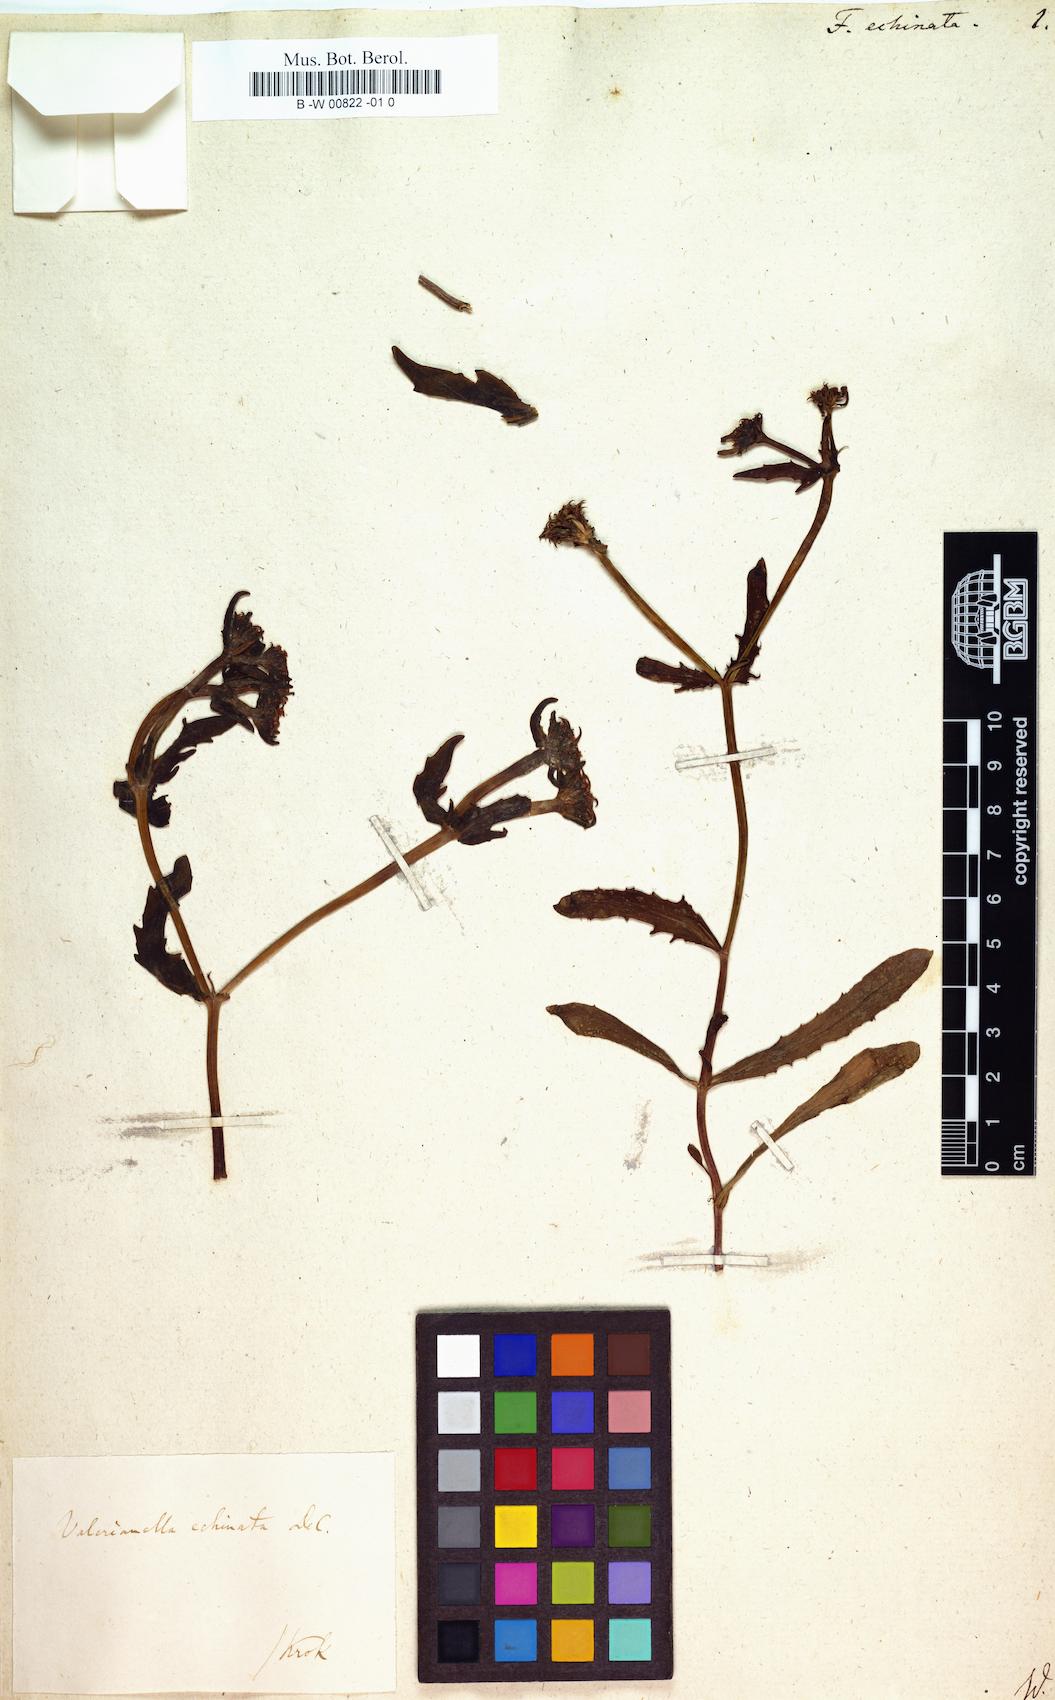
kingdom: Plantae
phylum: Tracheophyta
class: Magnoliopsida
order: Dipsacales
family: Caprifoliaceae
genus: Valerianella
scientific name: Valerianella echinata
